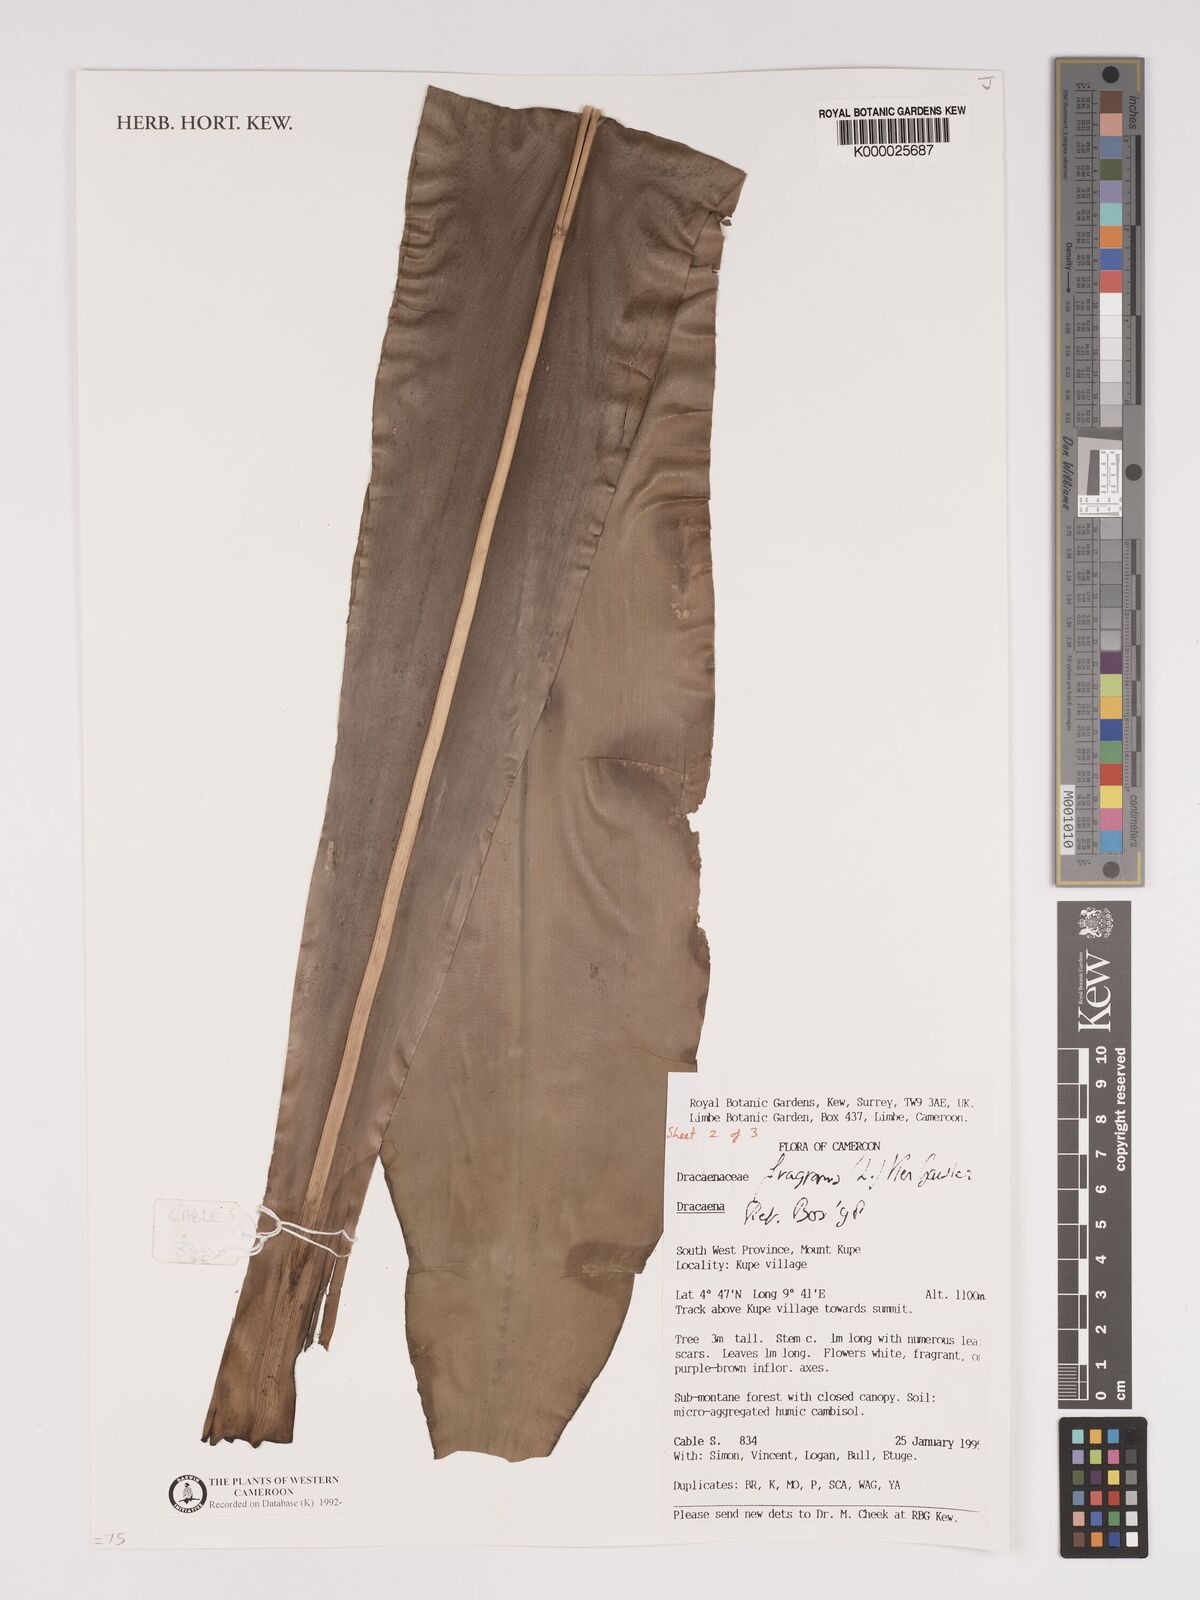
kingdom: Plantae
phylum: Tracheophyta
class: Liliopsida
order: Asparagales
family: Asparagaceae
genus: Dracaena
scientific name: Dracaena fragrans
